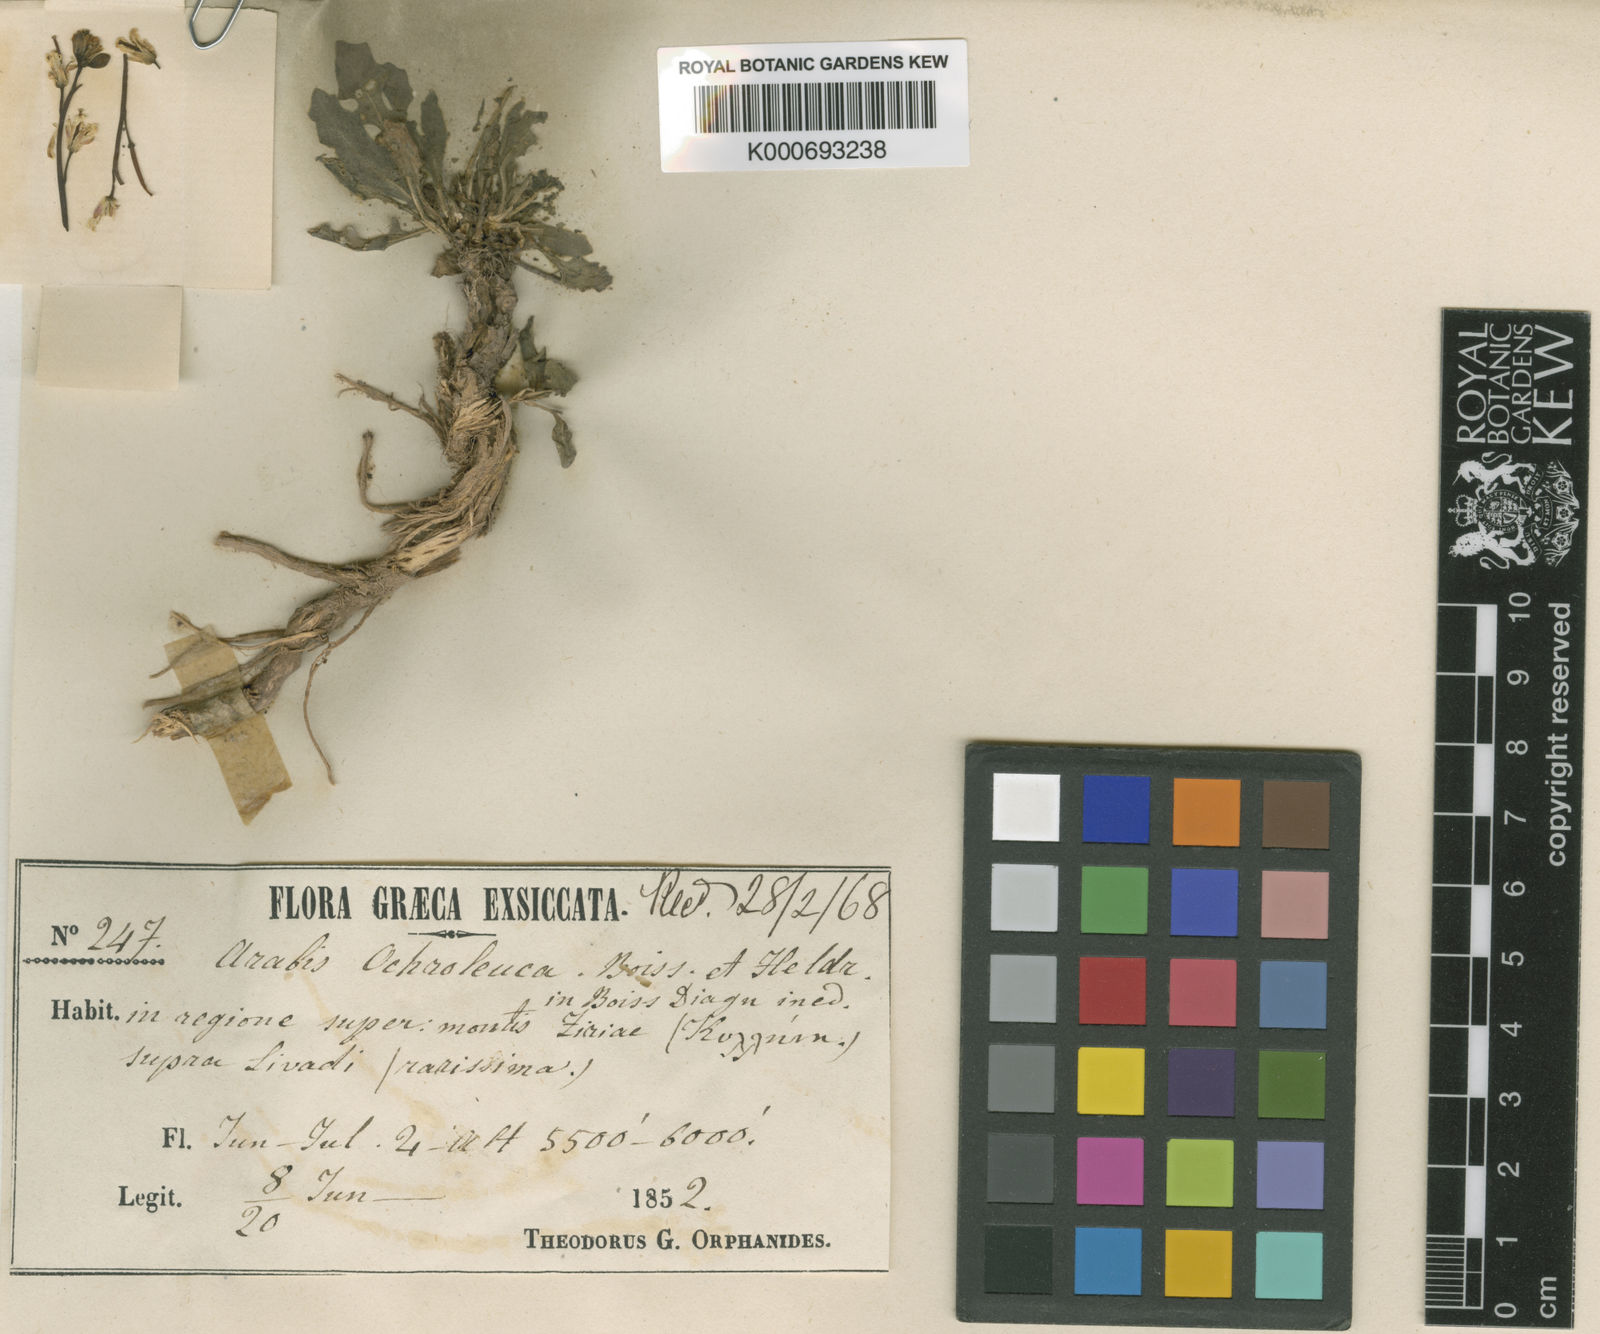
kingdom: Plantae
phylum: Tracheophyta
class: Magnoliopsida
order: Brassicales
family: Brassicaceae
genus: Arabis
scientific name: Arabis subflava
